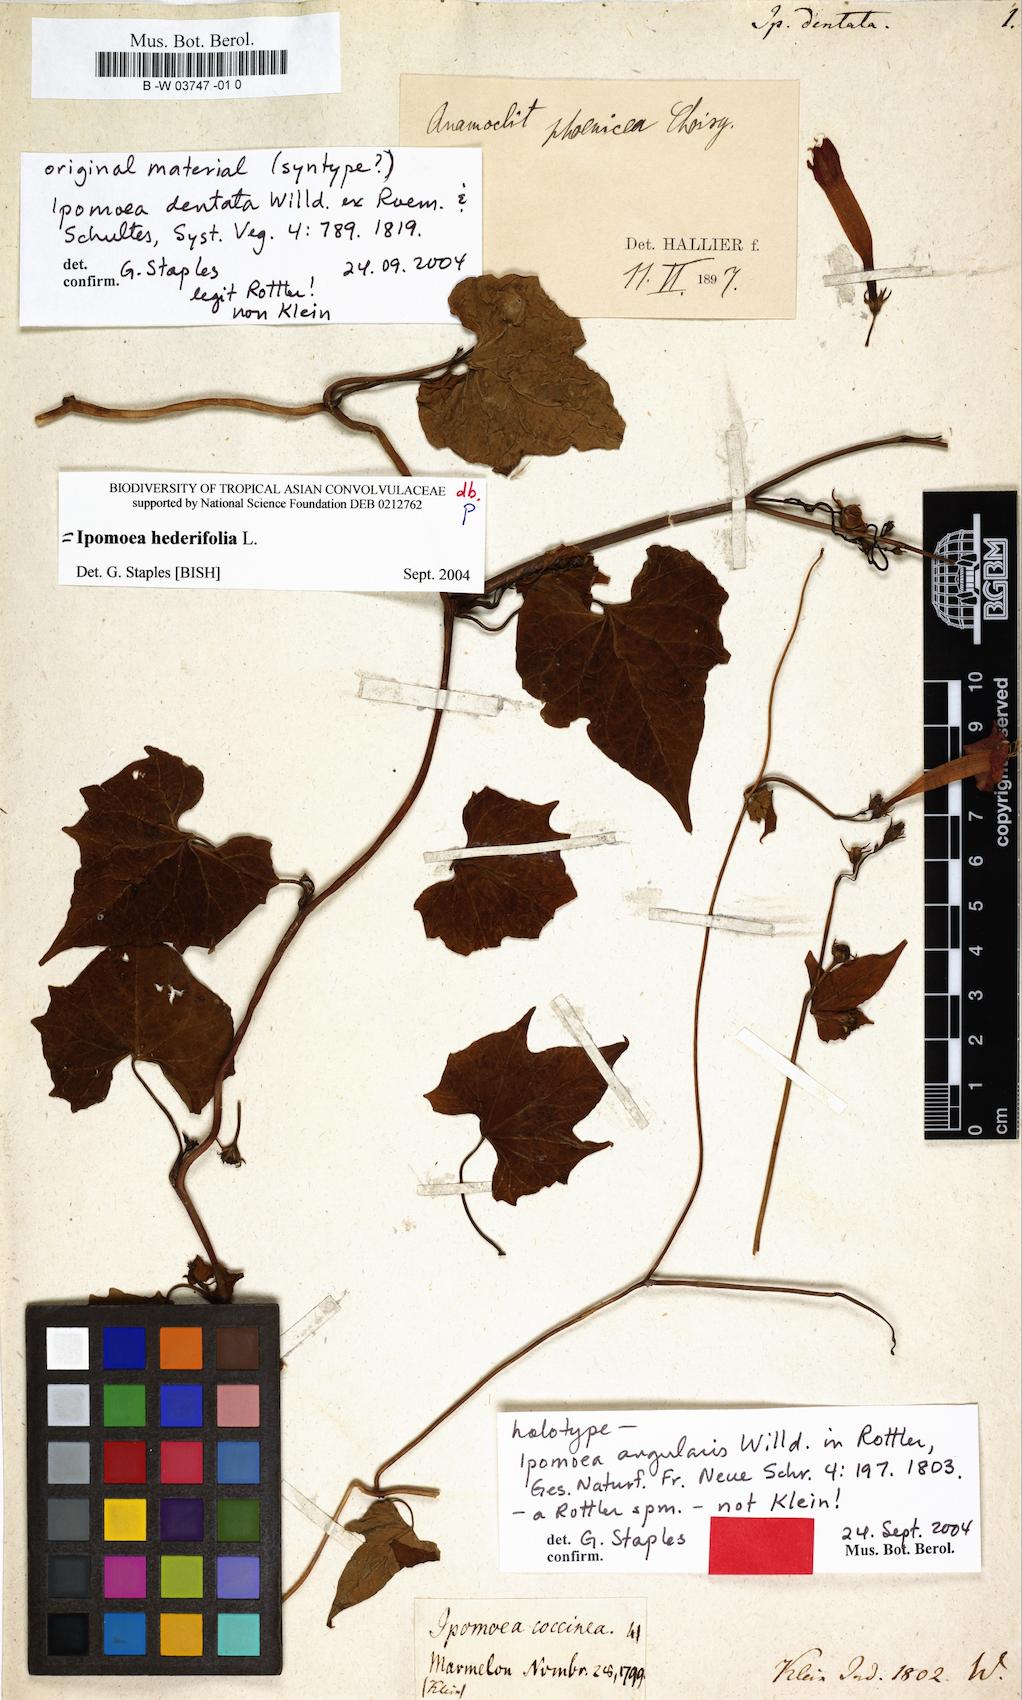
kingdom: Plantae
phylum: Tracheophyta
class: Magnoliopsida
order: Solanales
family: Convolvulaceae
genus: Merremia
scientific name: Merremia hederacea
